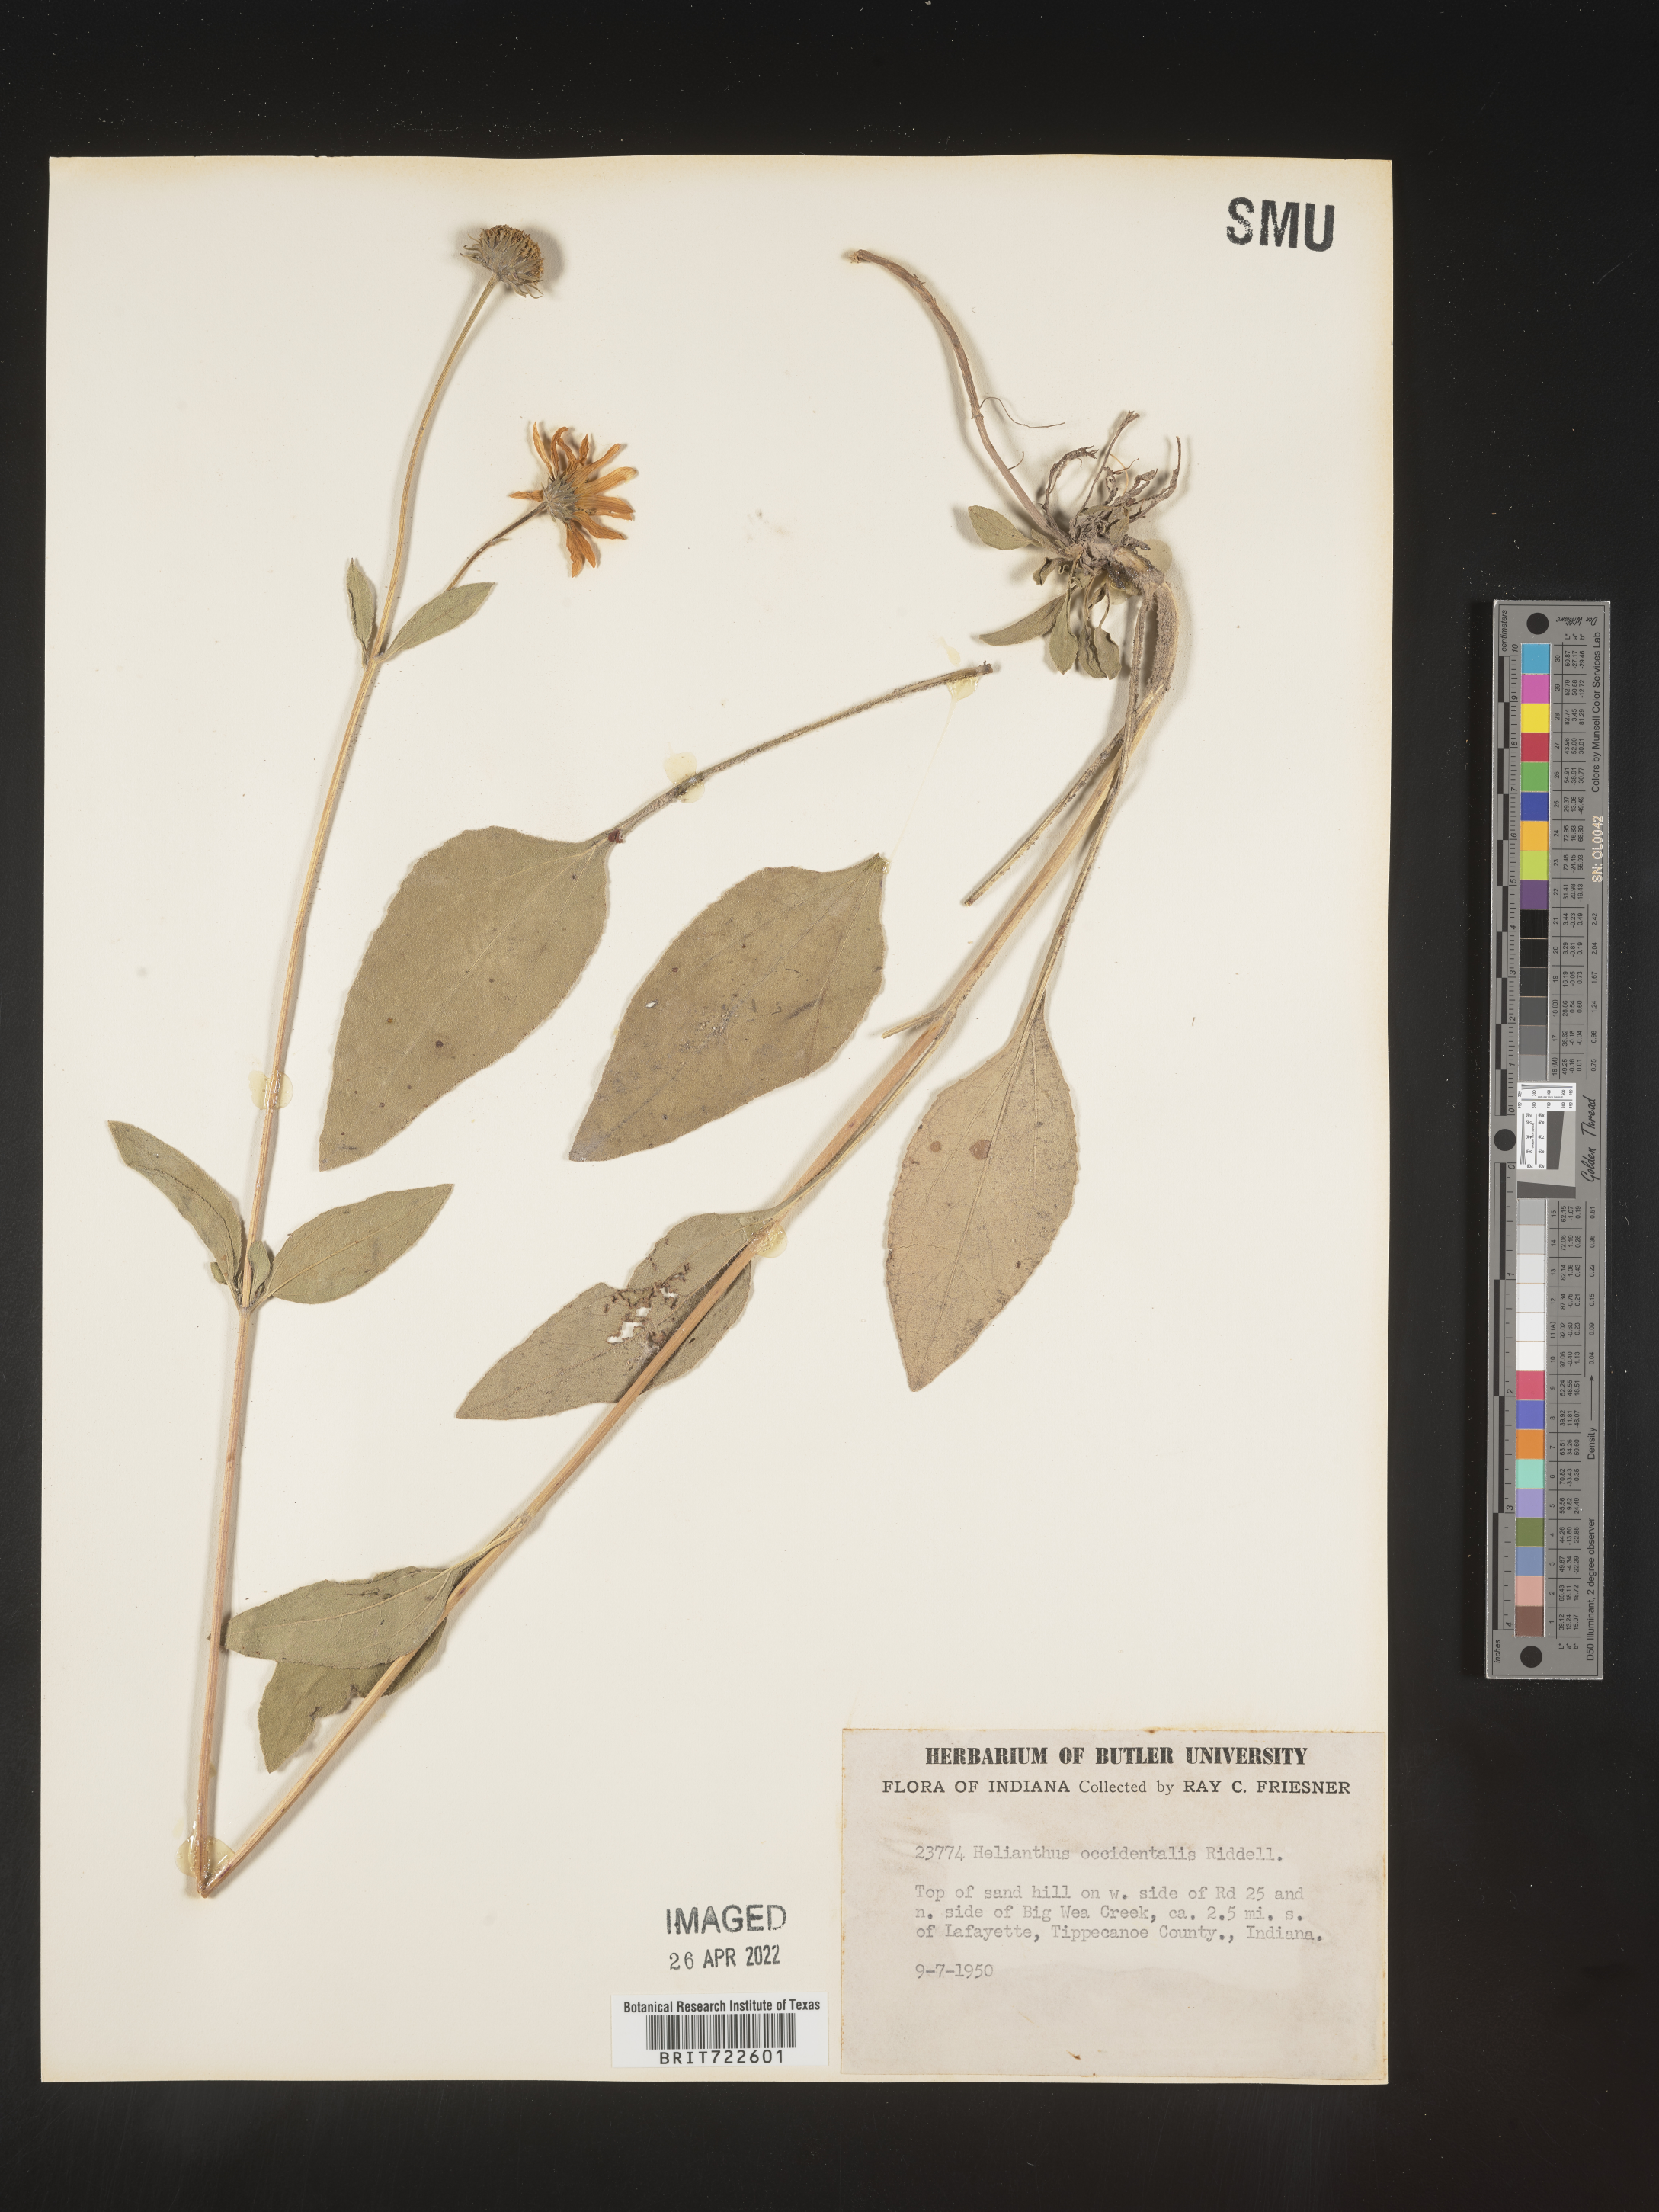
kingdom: Plantae
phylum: Tracheophyta
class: Magnoliopsida
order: Asterales
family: Asteraceae
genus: Helianthus
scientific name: Helianthus occidentalis
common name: Western sunflower
